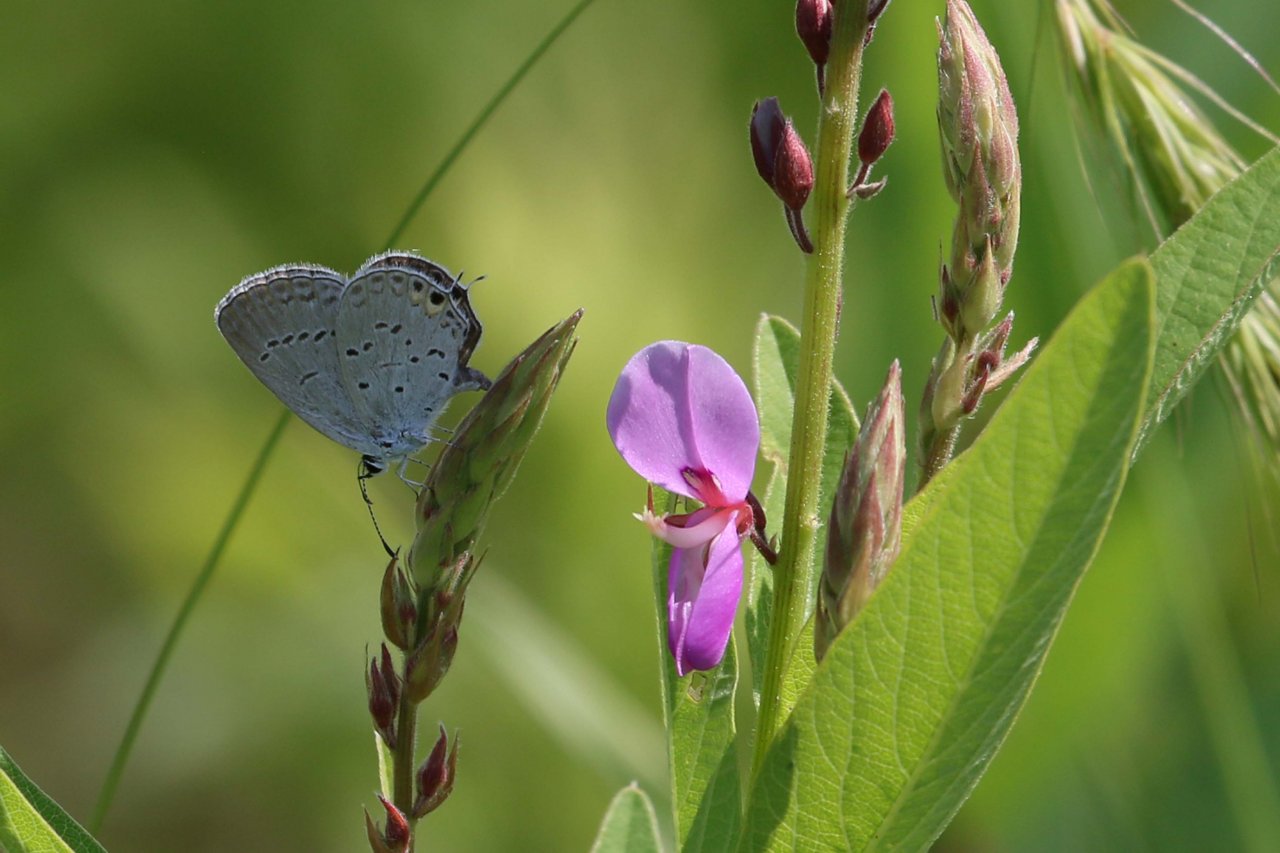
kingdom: Animalia
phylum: Arthropoda
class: Insecta
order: Lepidoptera
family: Lycaenidae
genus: Elkalyce
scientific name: Elkalyce comyntas
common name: Eastern Tailed-Blue
